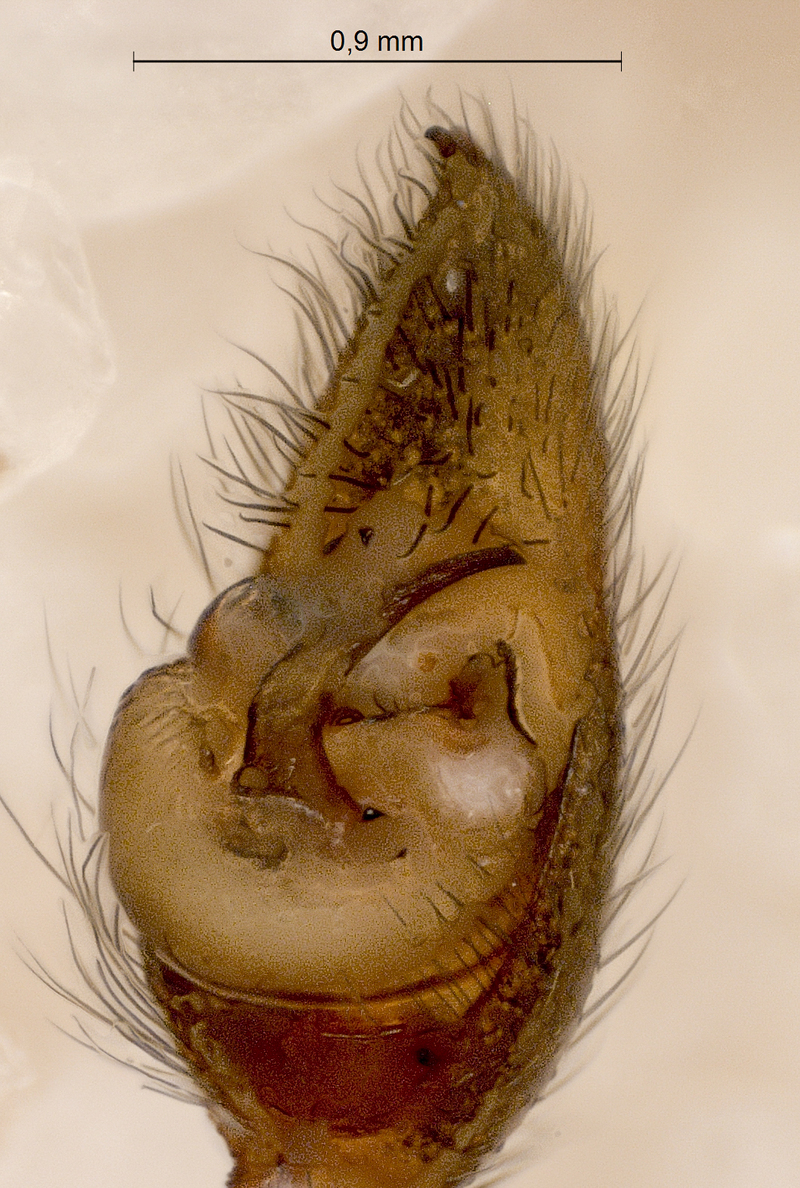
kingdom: Animalia
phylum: Arthropoda
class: Arachnida
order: Araneae
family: Lycosidae
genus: Pardosa
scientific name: Pardosa lugubris
